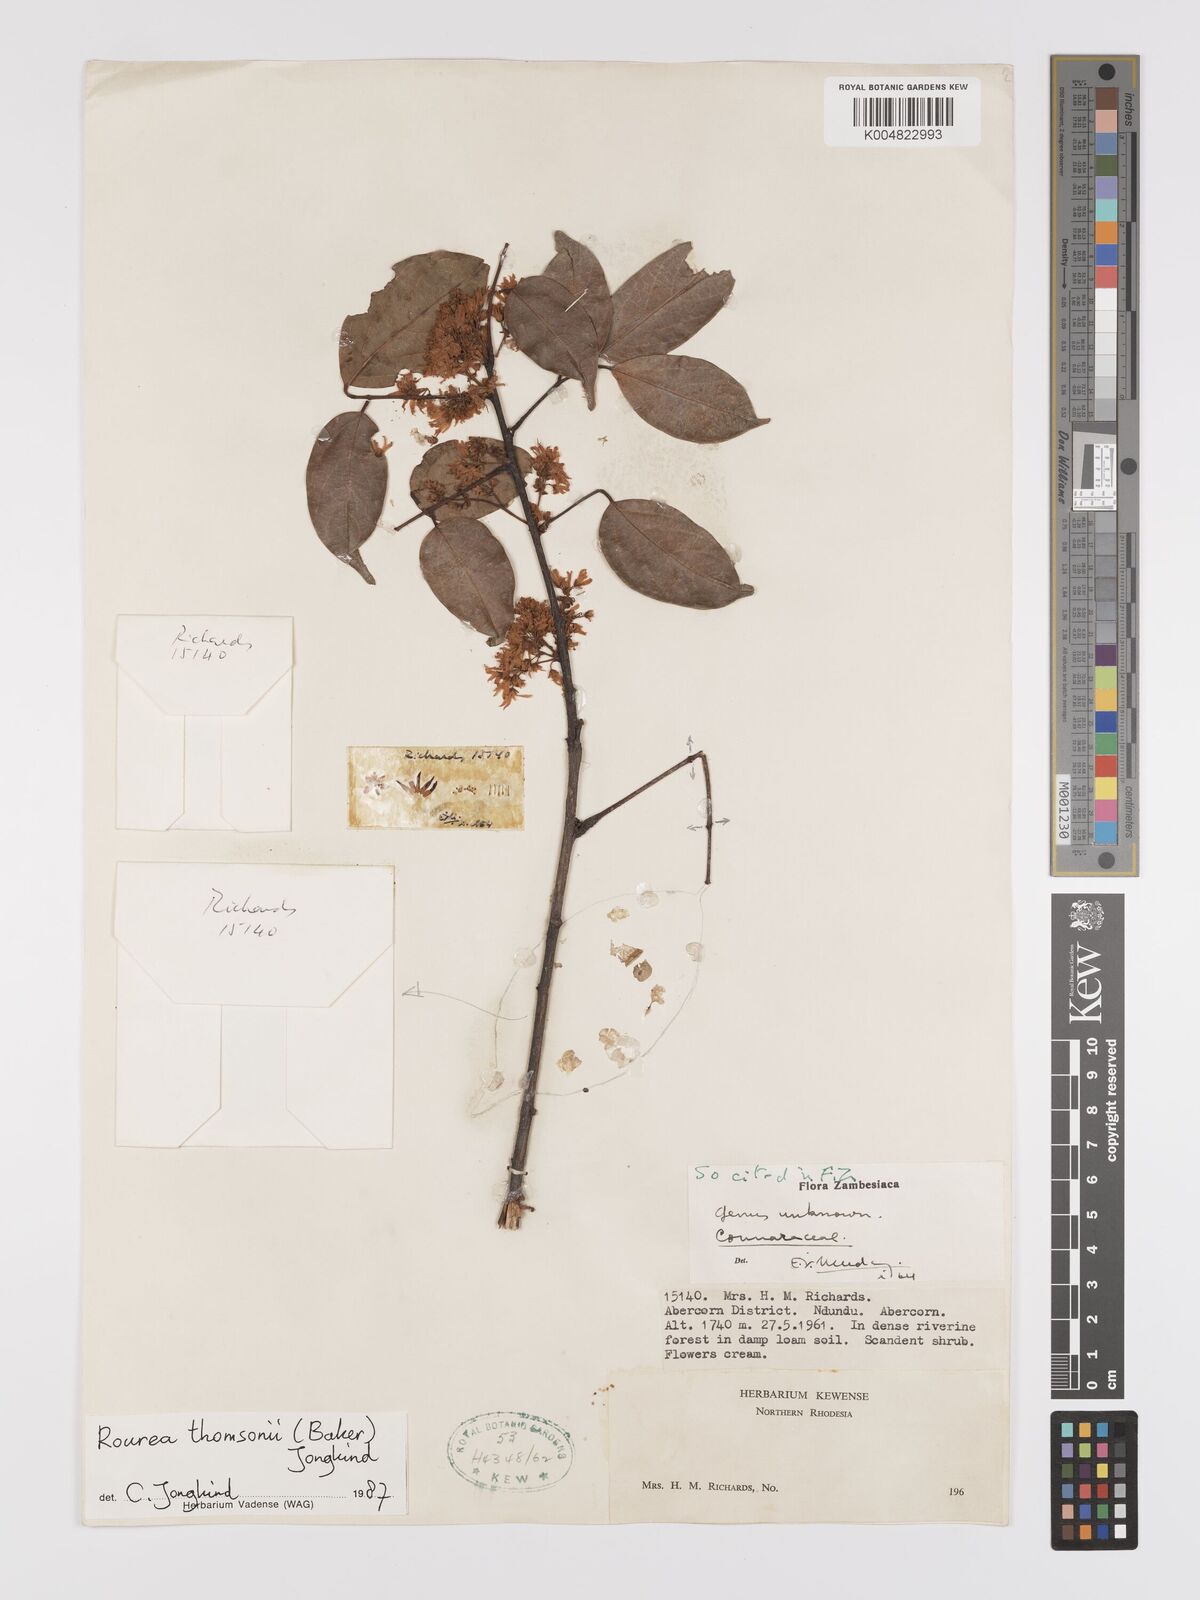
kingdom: Plantae
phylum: Tracheophyta
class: Magnoliopsida
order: Oxalidales
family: Connaraceae
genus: Rourea
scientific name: Rourea thomsonii
